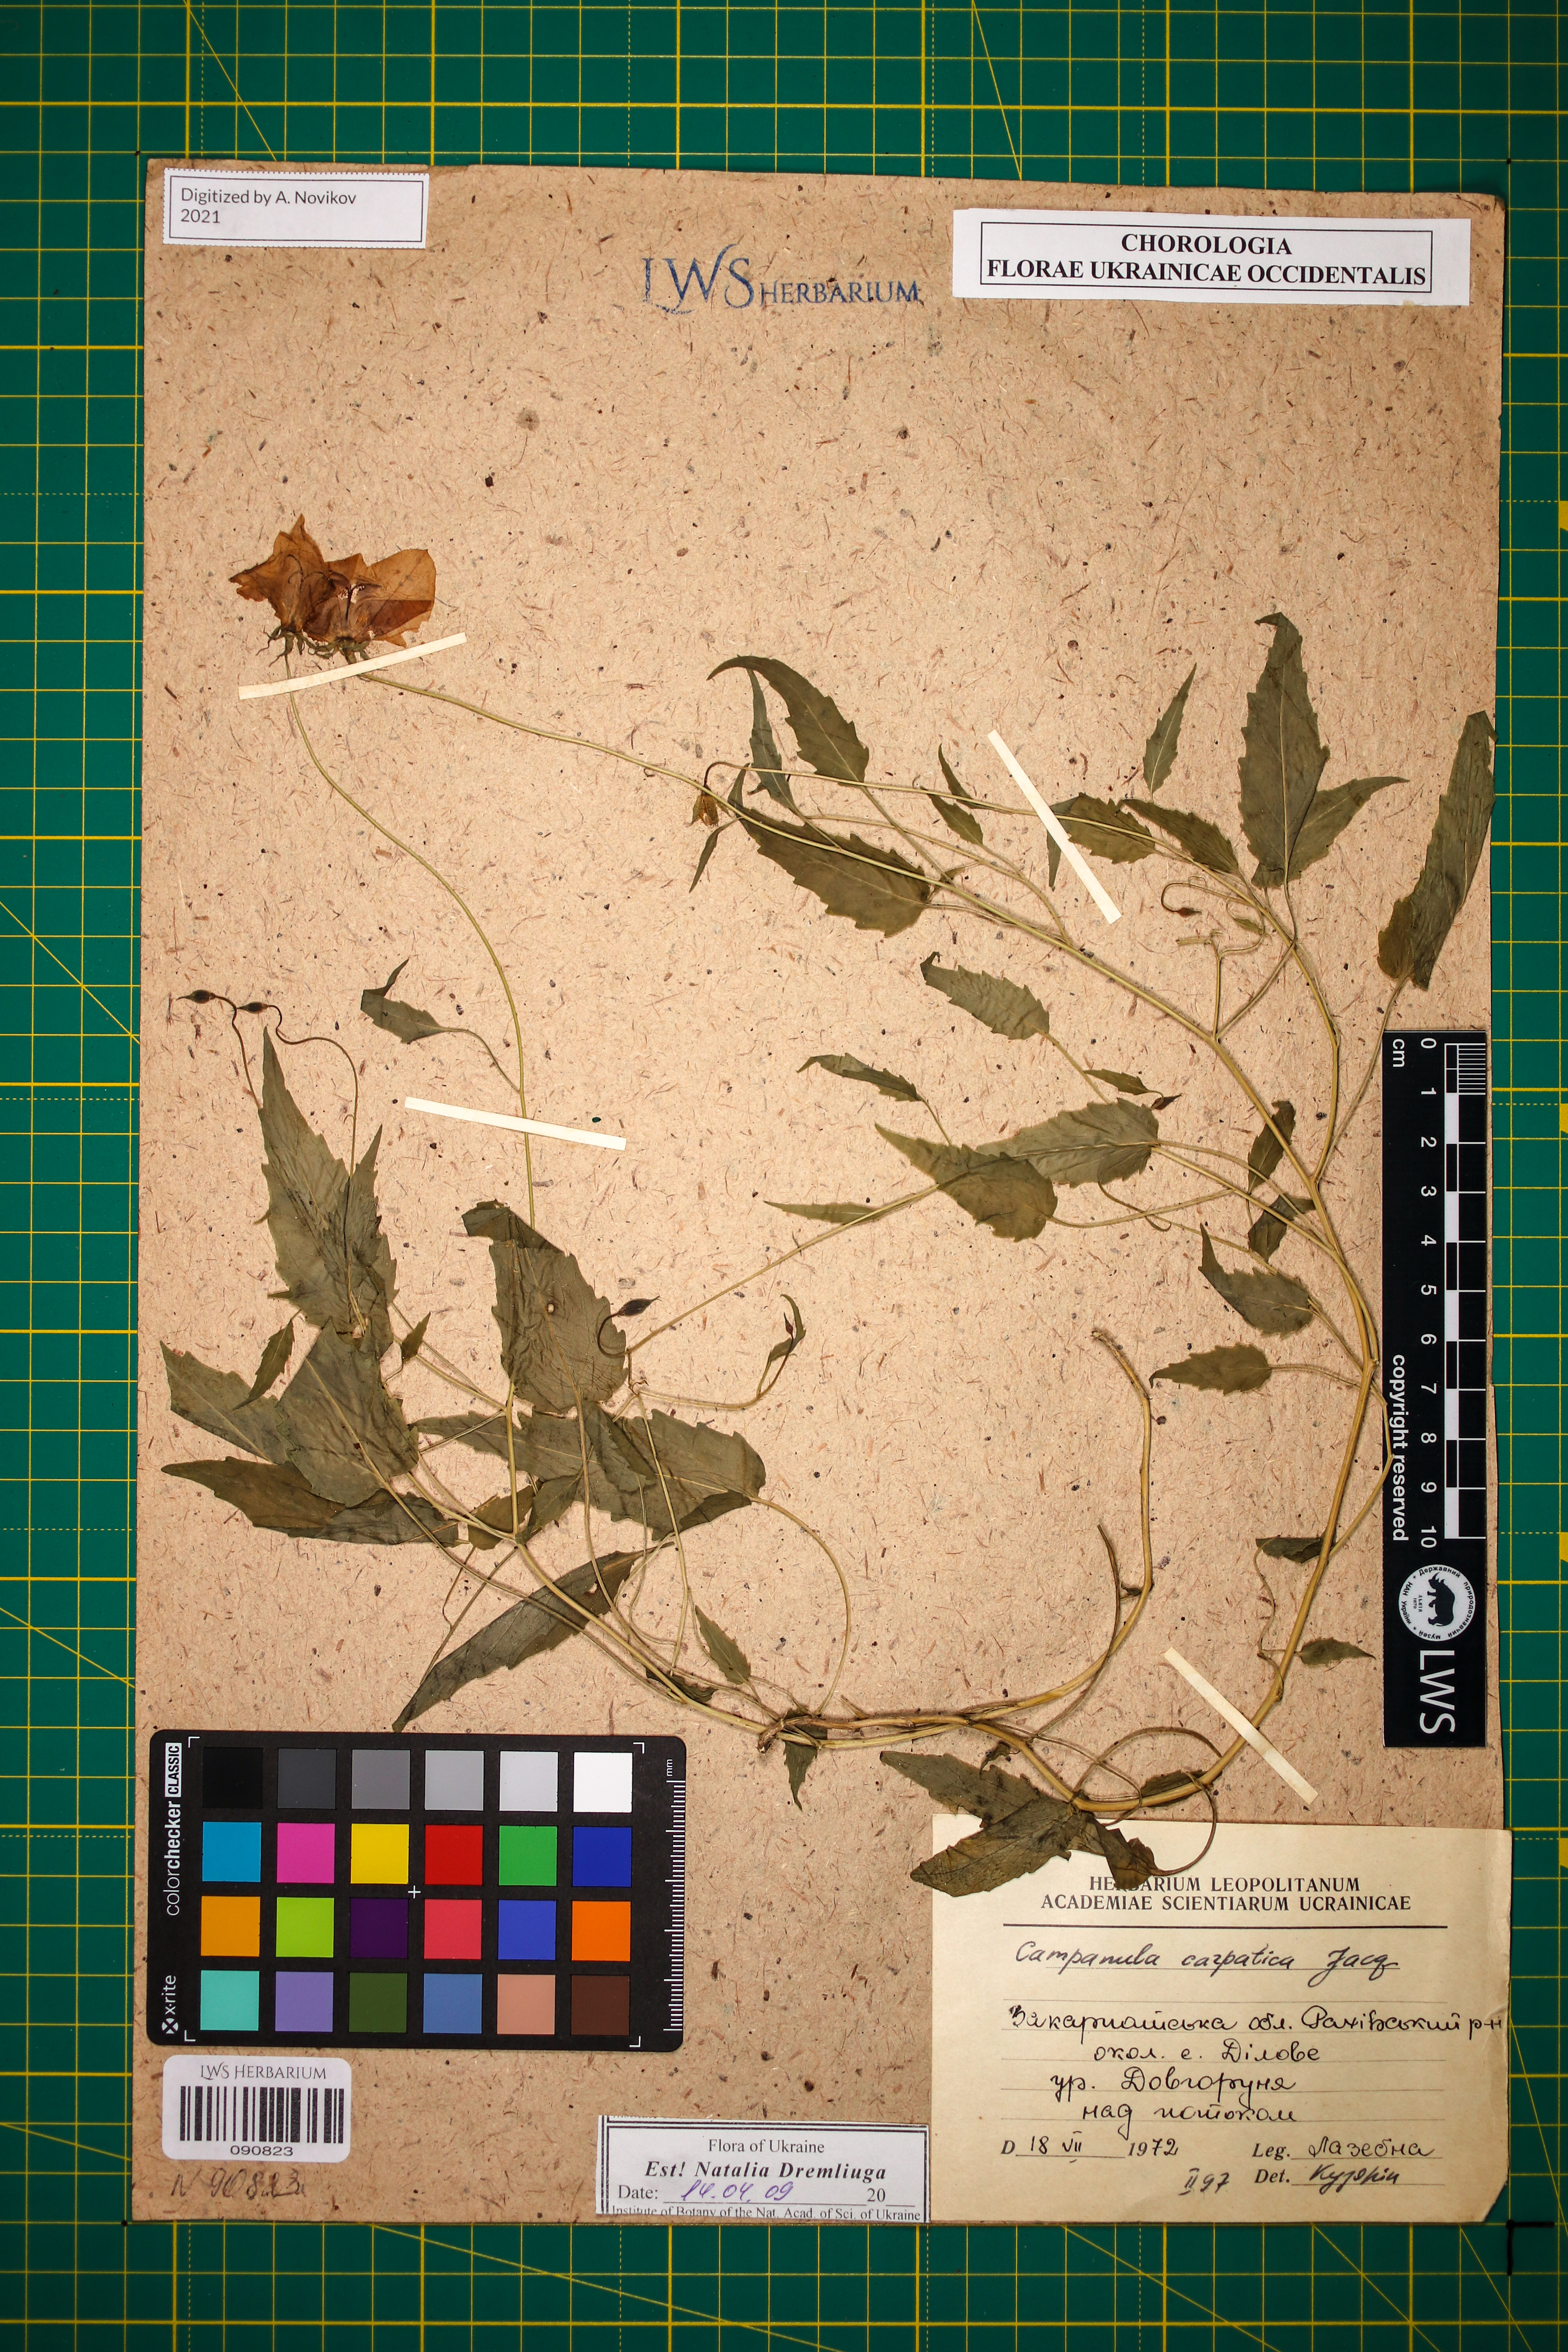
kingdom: Plantae
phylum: Tracheophyta
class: Magnoliopsida
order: Asterales
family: Campanulaceae
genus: Campanula
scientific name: Campanula carpatica
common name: Tussock bellflower
